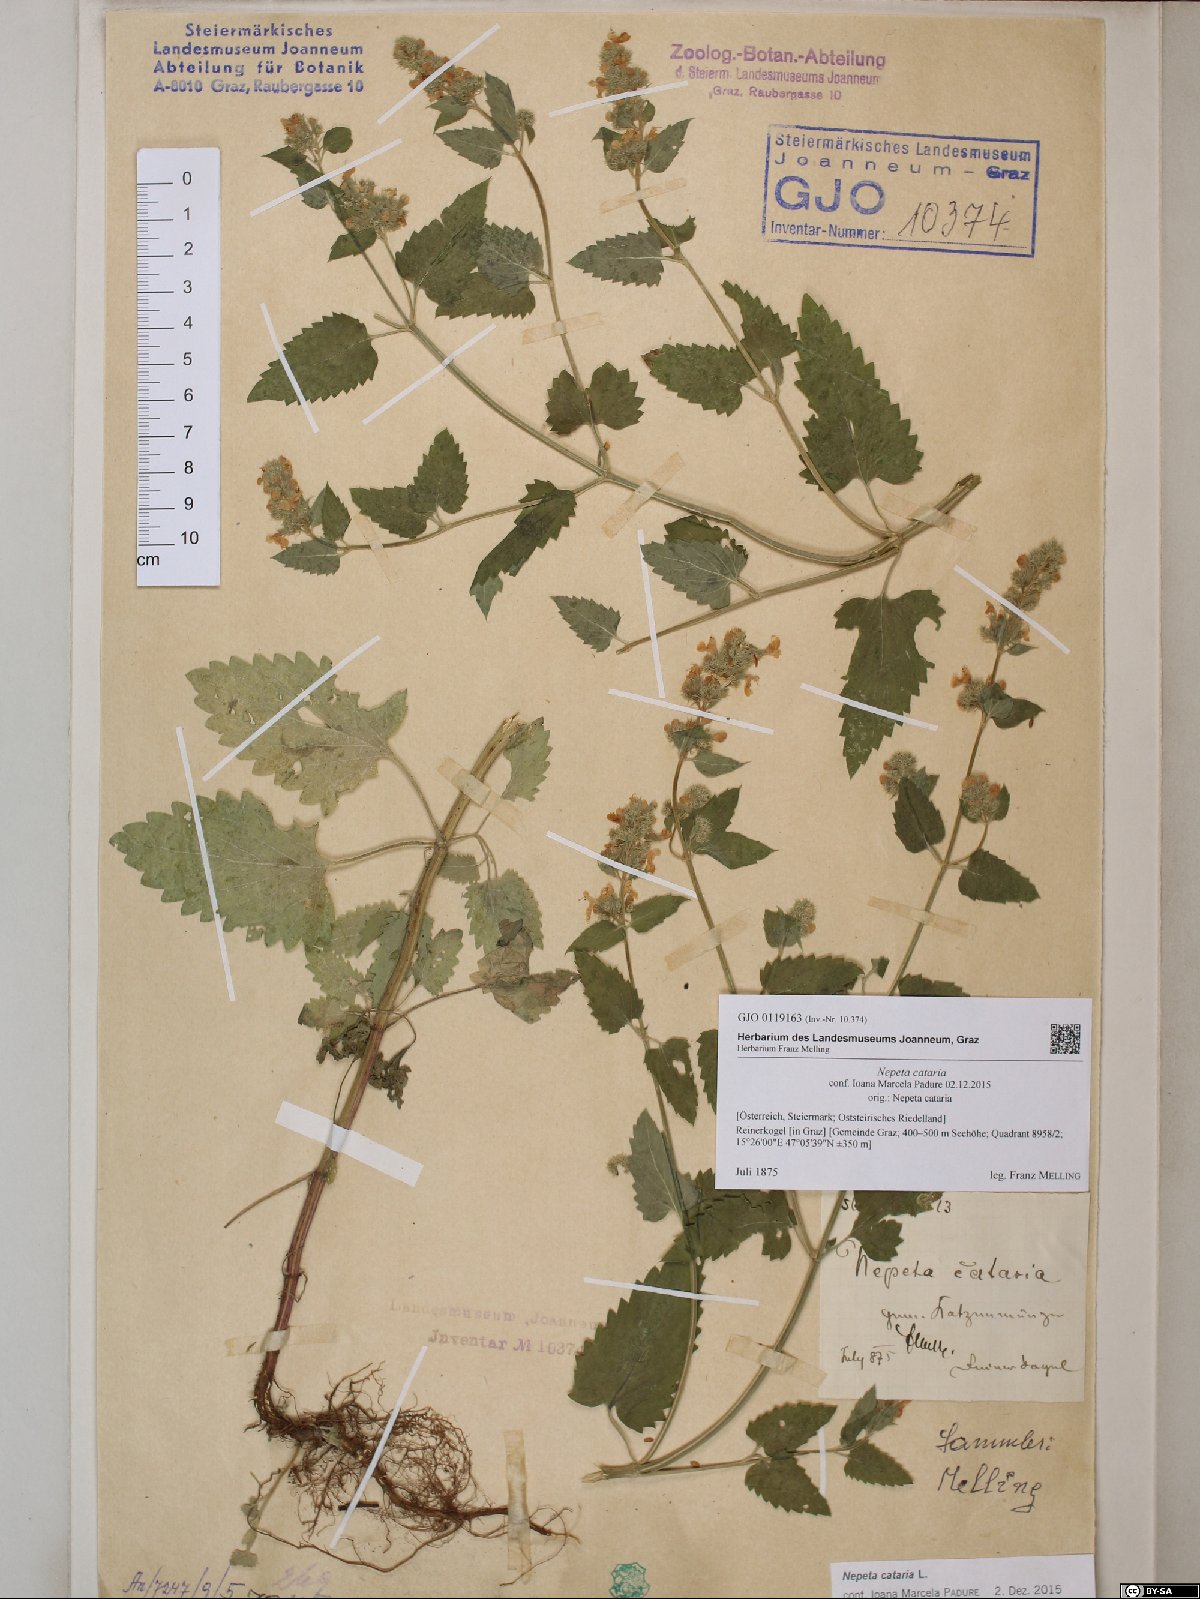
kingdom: Plantae
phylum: Tracheophyta
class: Magnoliopsida
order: Lamiales
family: Lamiaceae
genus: Nepeta
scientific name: Nepeta cataria
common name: Catnip
